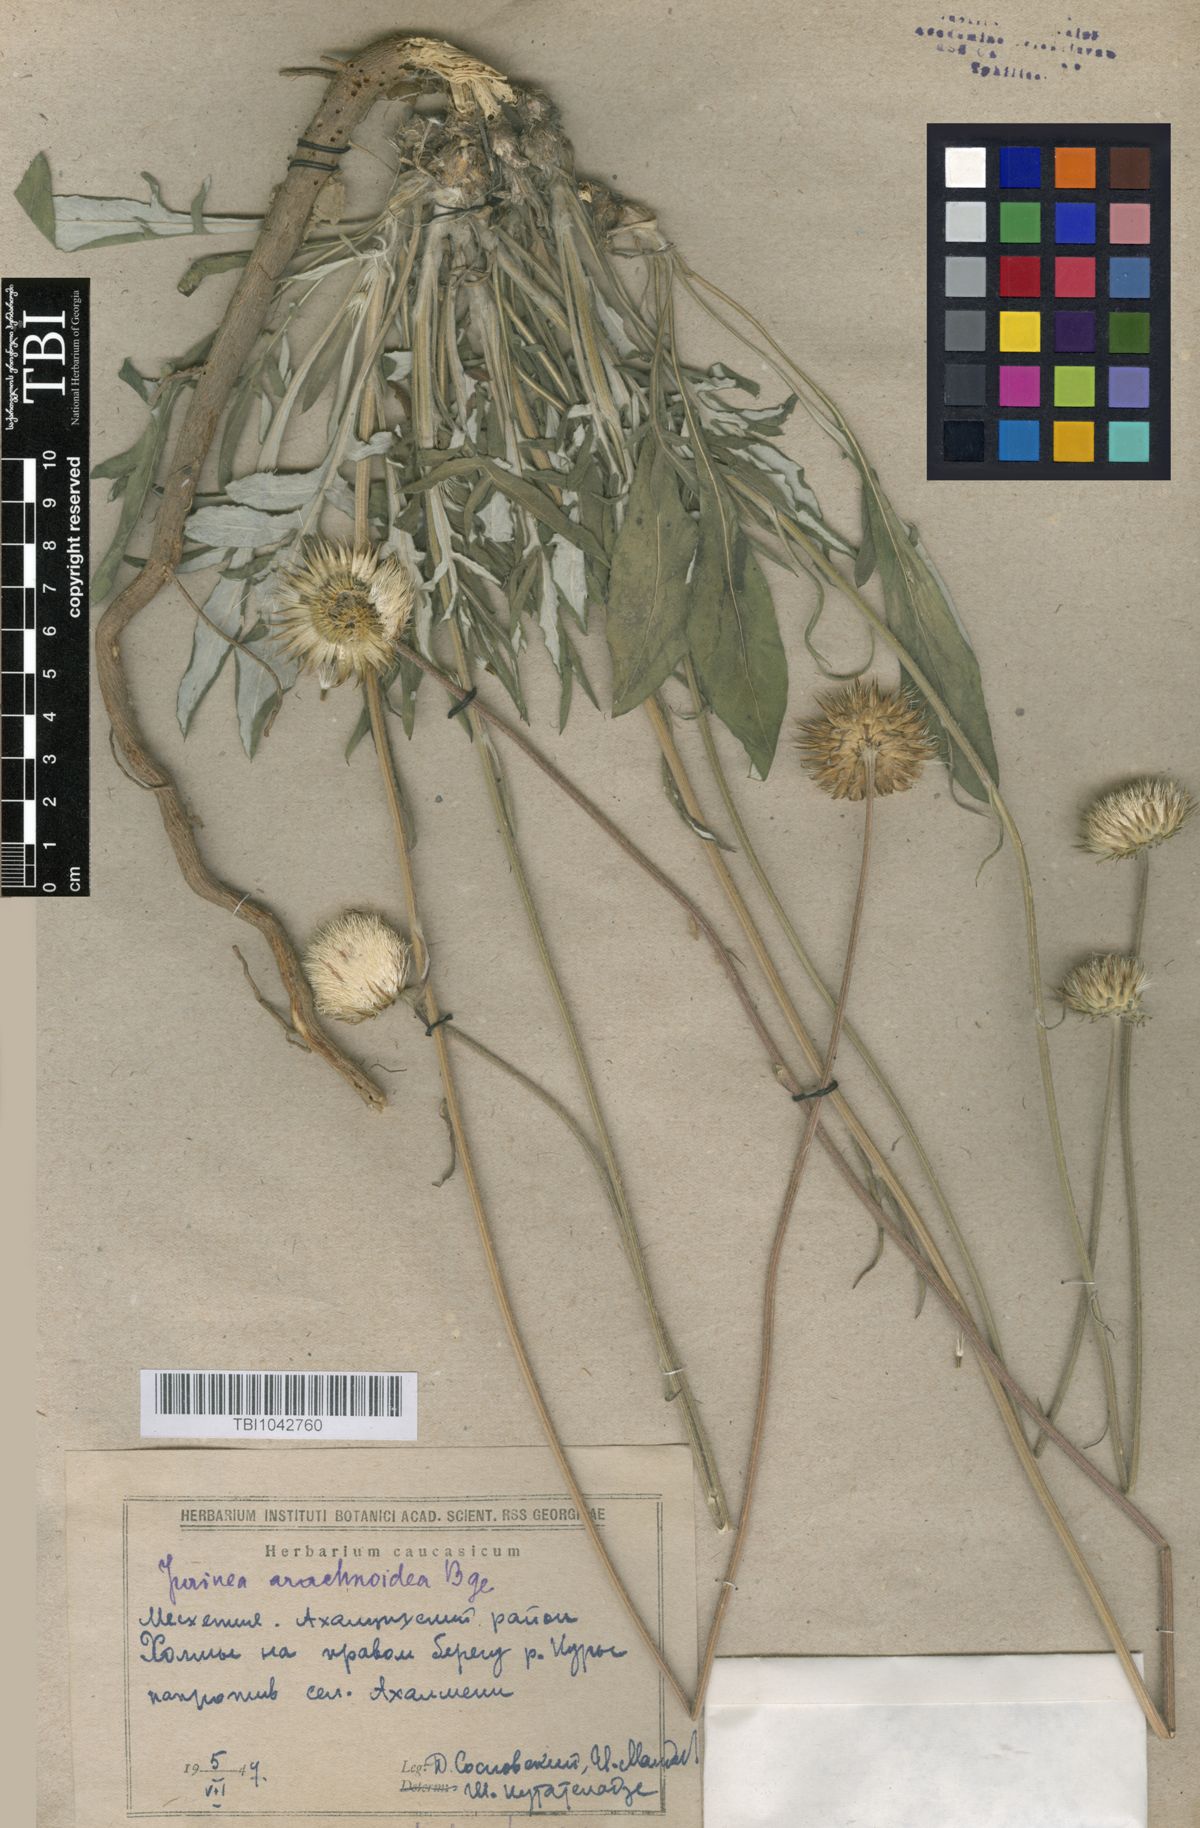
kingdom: Plantae
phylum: Tracheophyta
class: Magnoliopsida
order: Asterales
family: Asteraceae
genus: Jurinea
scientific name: Jurinea blanda
